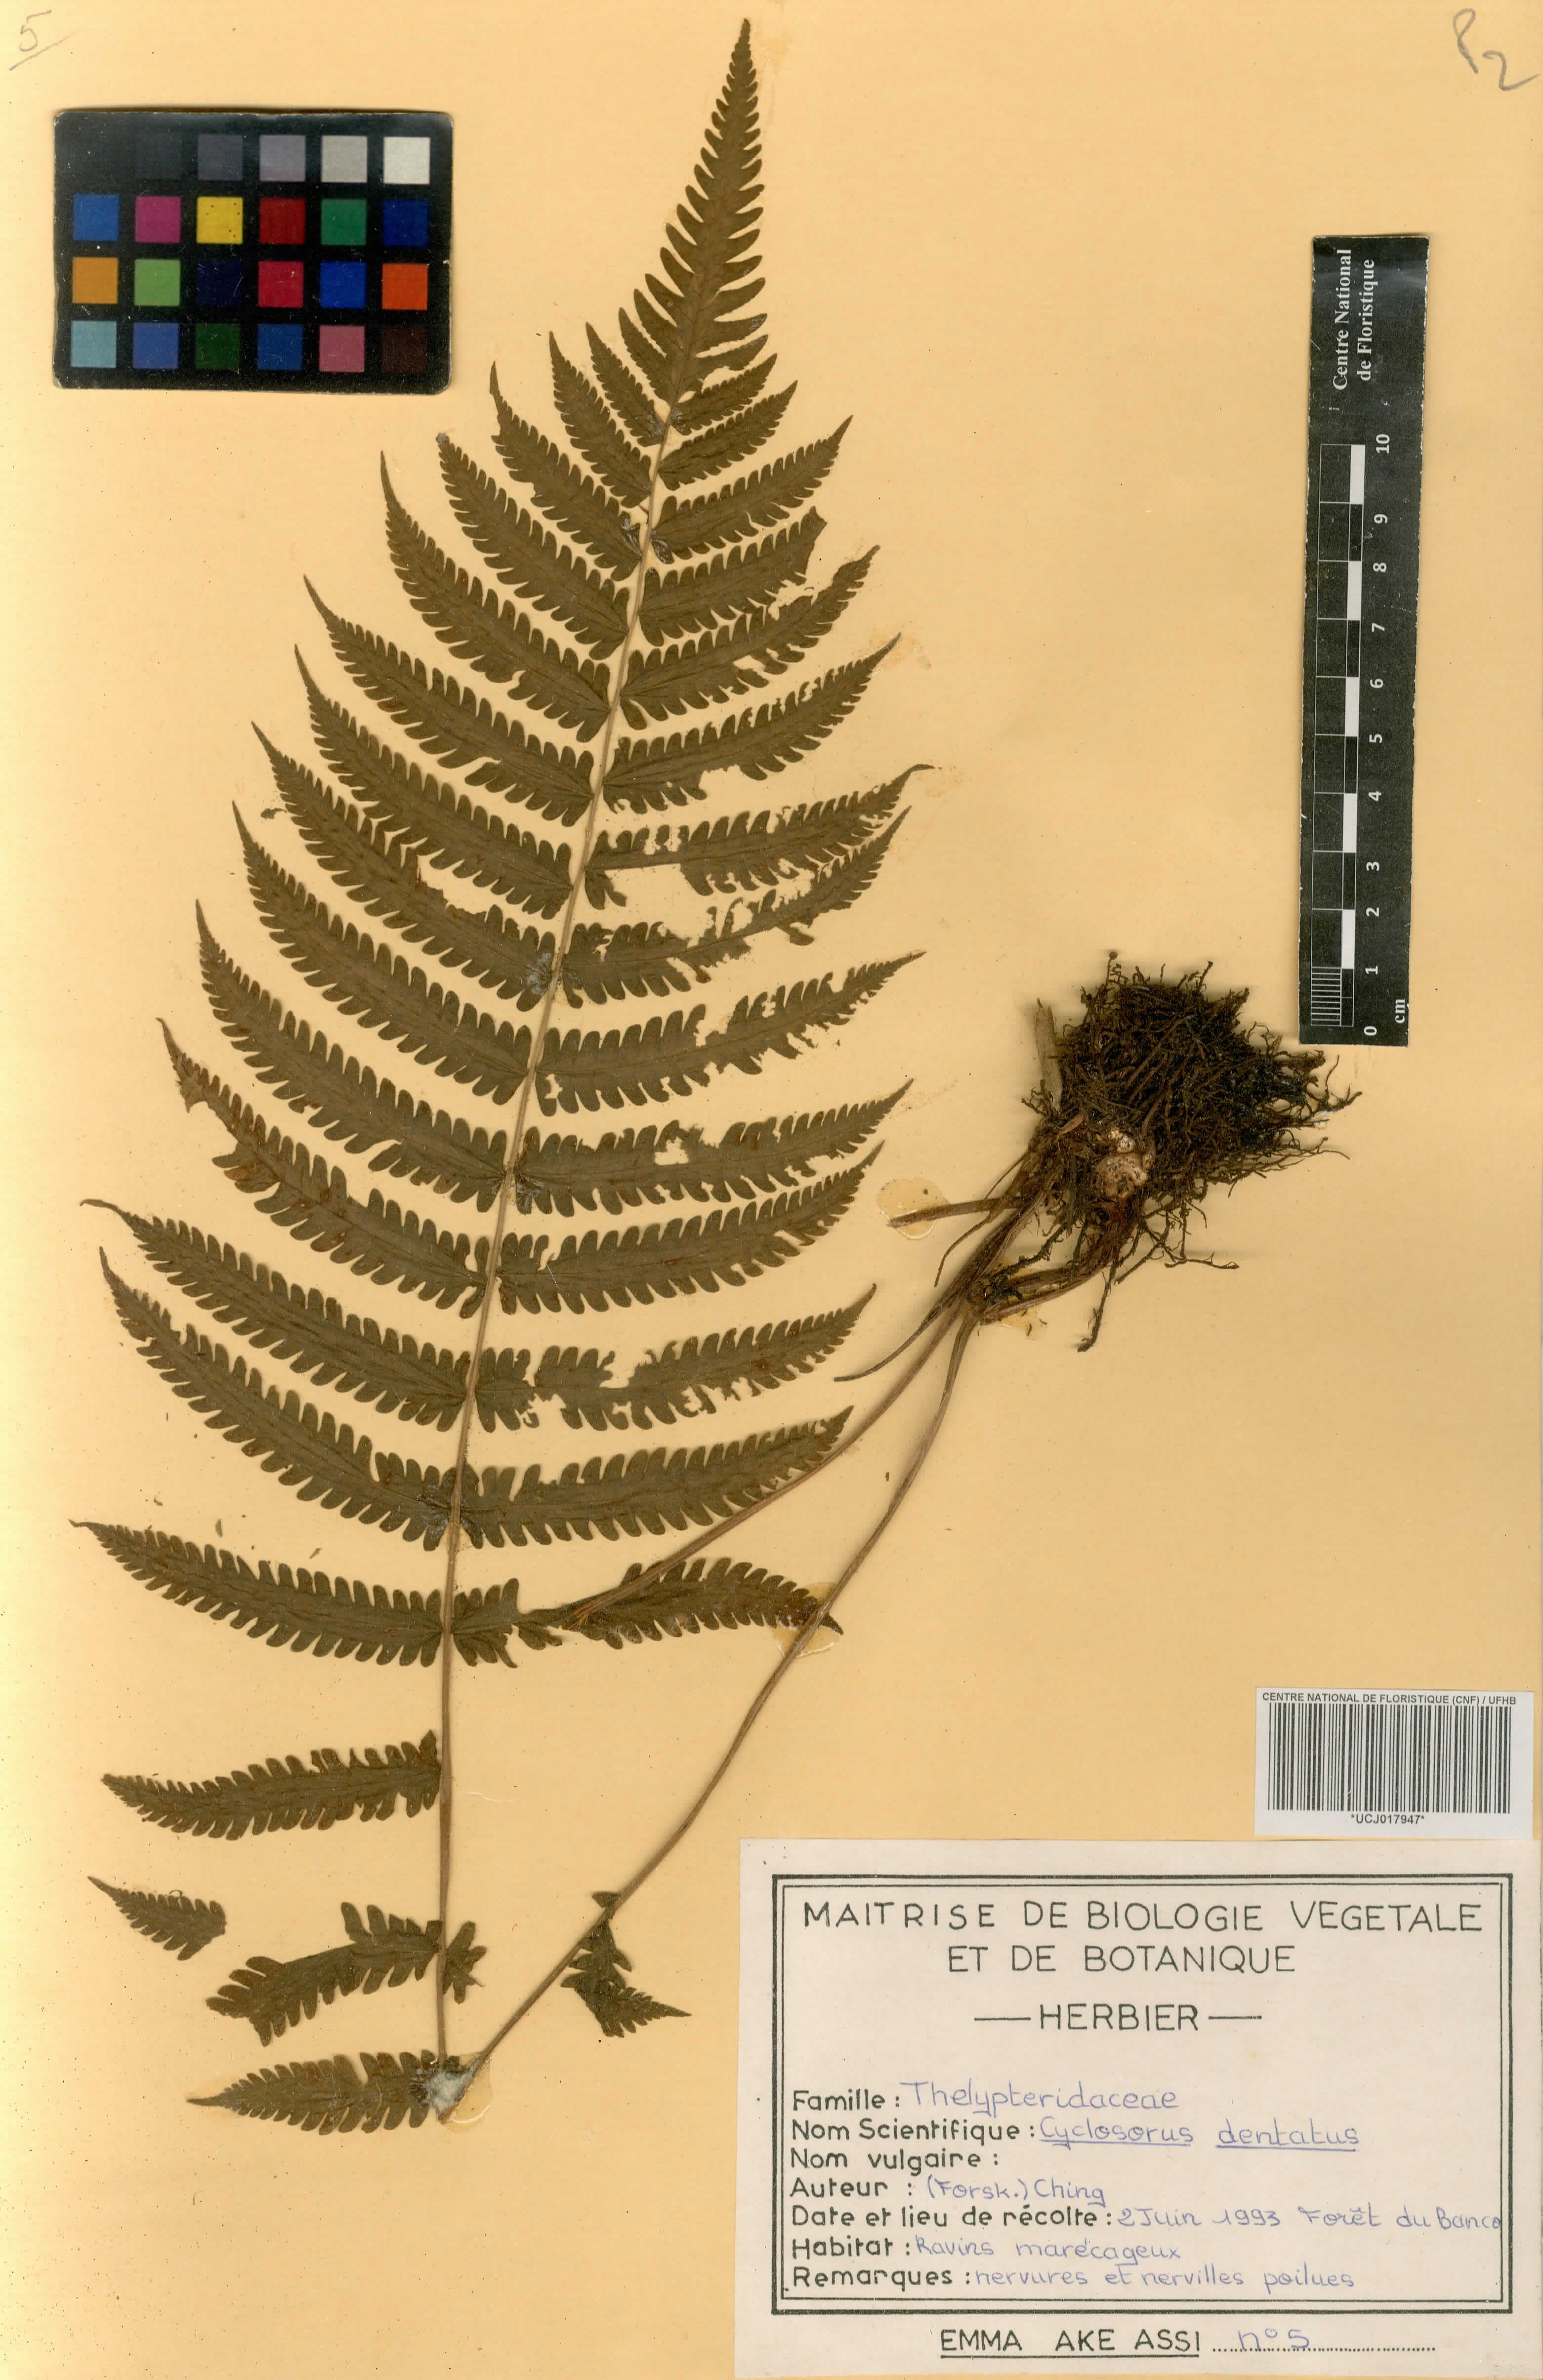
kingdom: Plantae
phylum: Tracheophyta
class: Polypodiopsida
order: Polypodiales
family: Thelypteridaceae
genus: Christella
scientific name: Christella dentata
